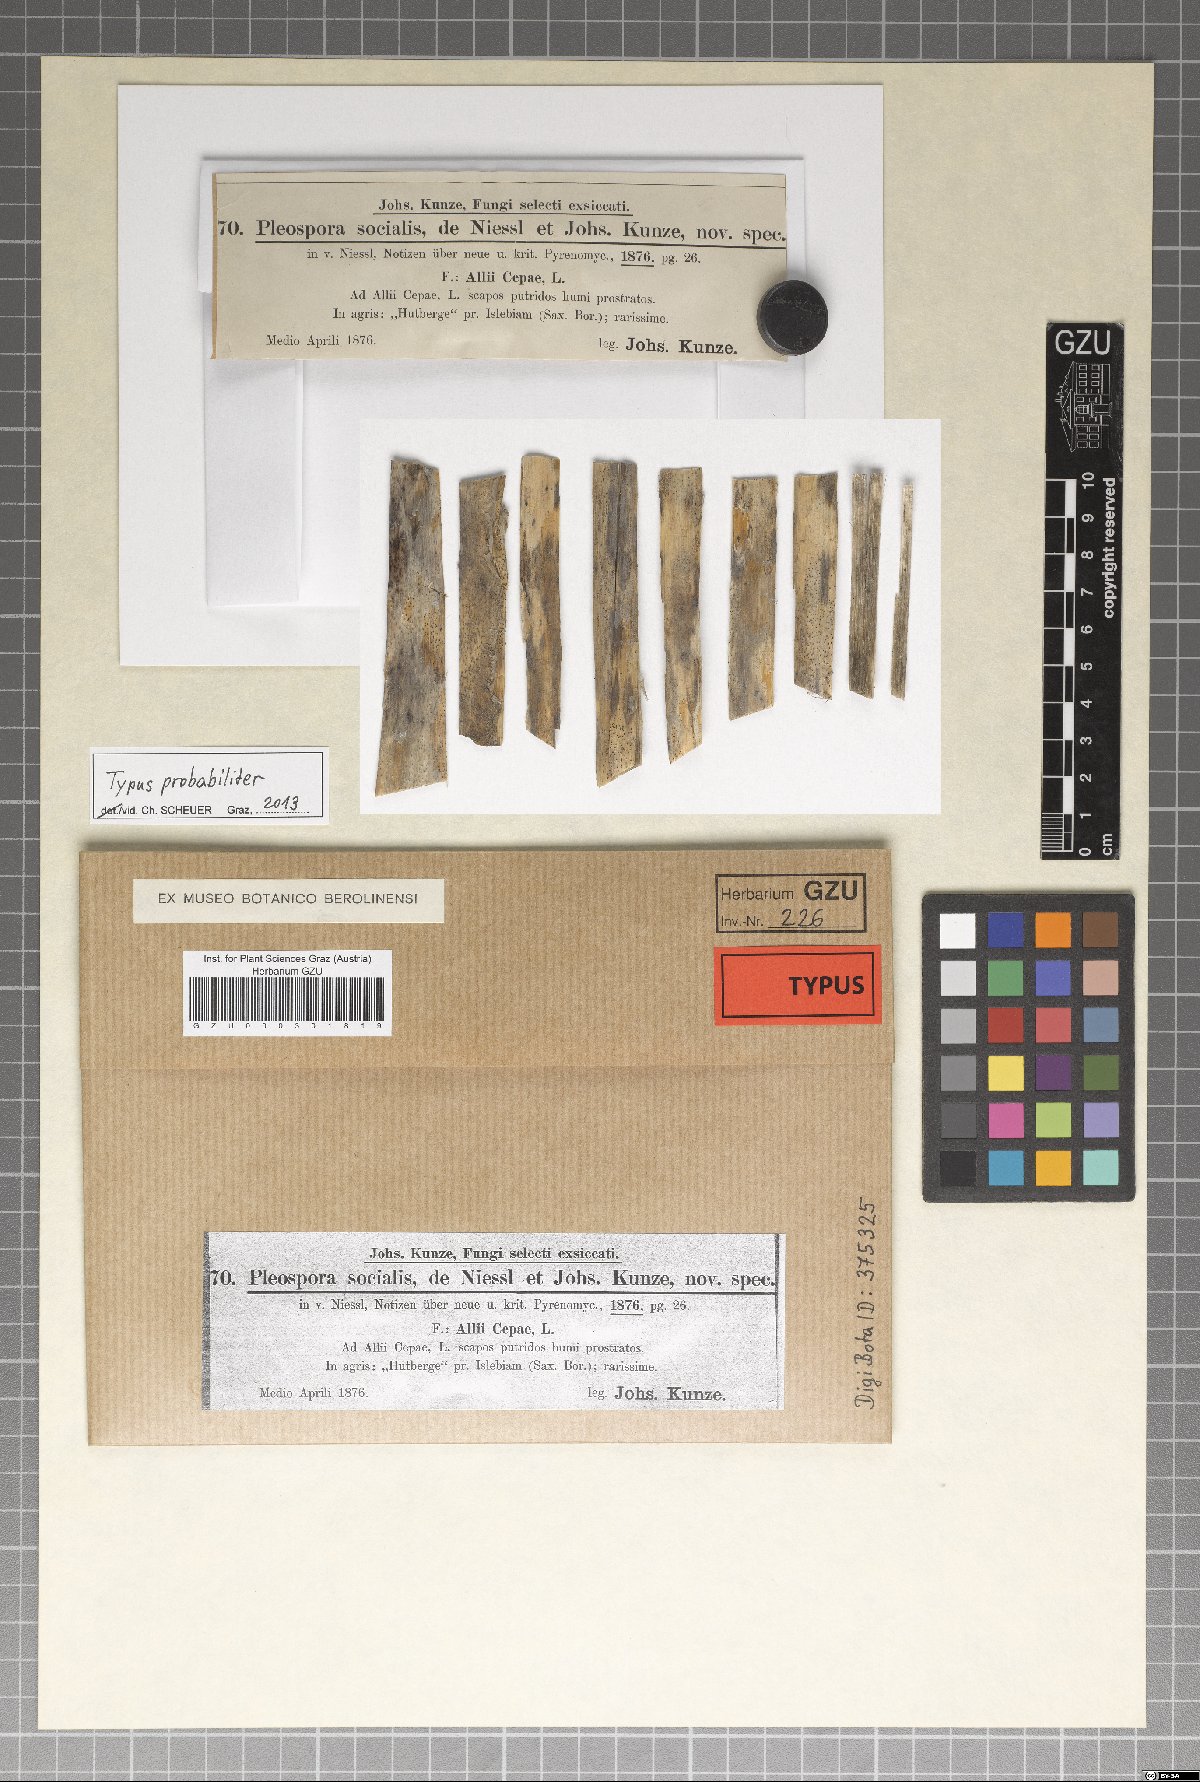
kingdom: Fungi
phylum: Ascomycota
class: Dothideomycetes
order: Pleosporales
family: Pleosporaceae
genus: Pleospora
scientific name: Pleospora phaeocomoides
